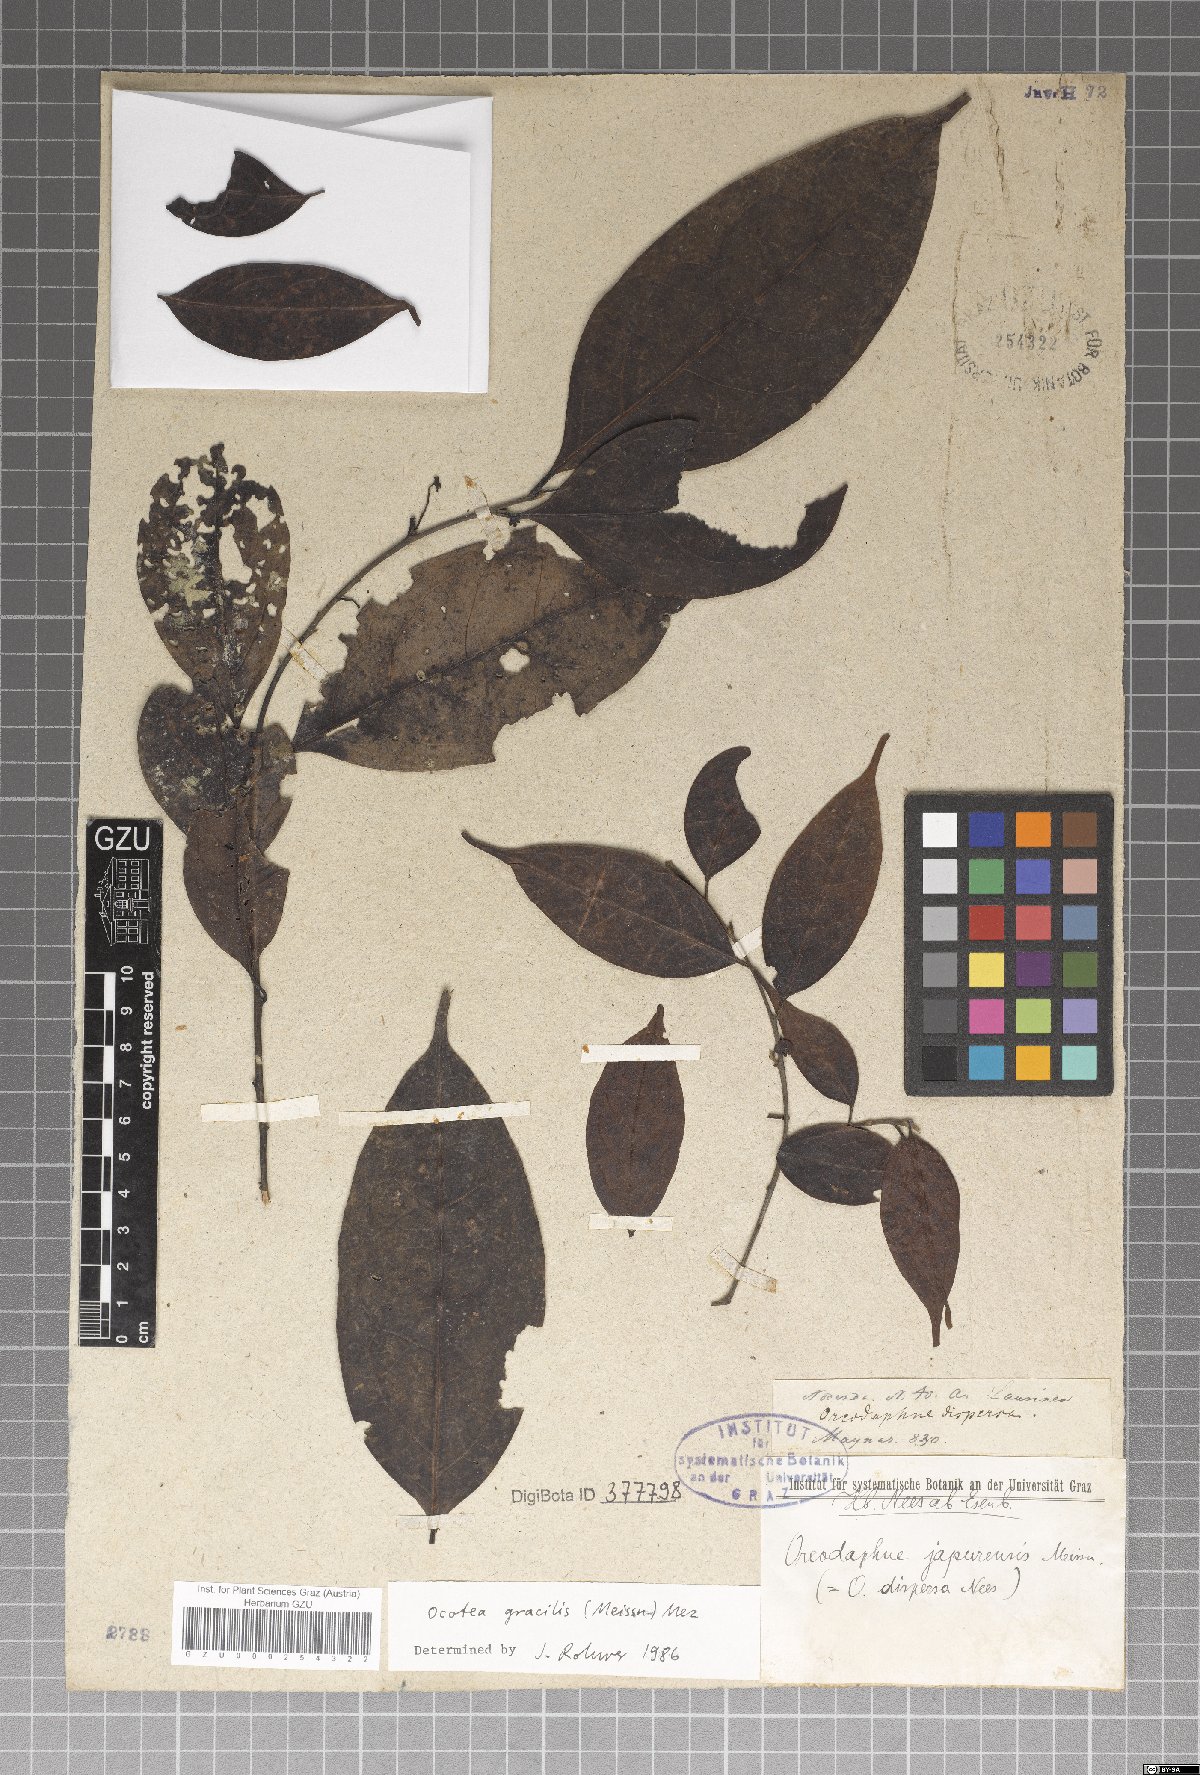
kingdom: Plantae
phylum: Tracheophyta
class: Magnoliopsida
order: Laurales
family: Lauraceae
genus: Ocotea
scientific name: Ocotea gracilis
